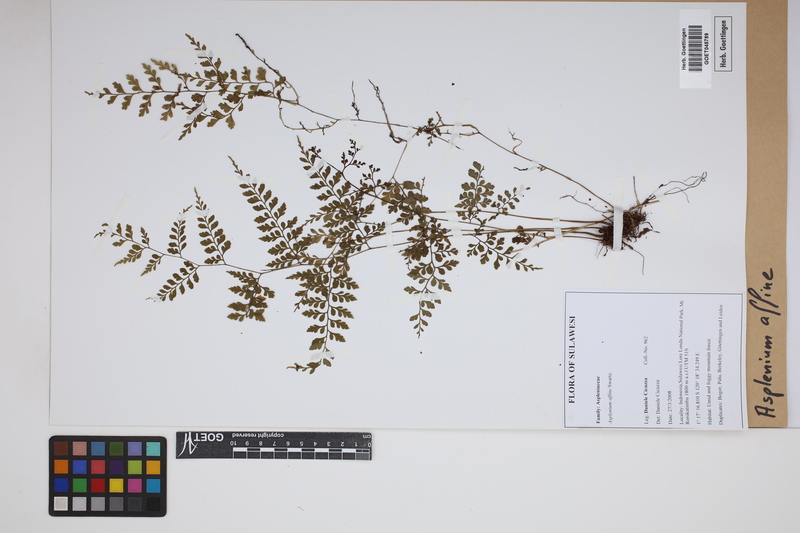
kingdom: Plantae
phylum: Tracheophyta
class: Polypodiopsida
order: Polypodiales
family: Aspleniaceae
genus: Asplenium
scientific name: Asplenium affine
